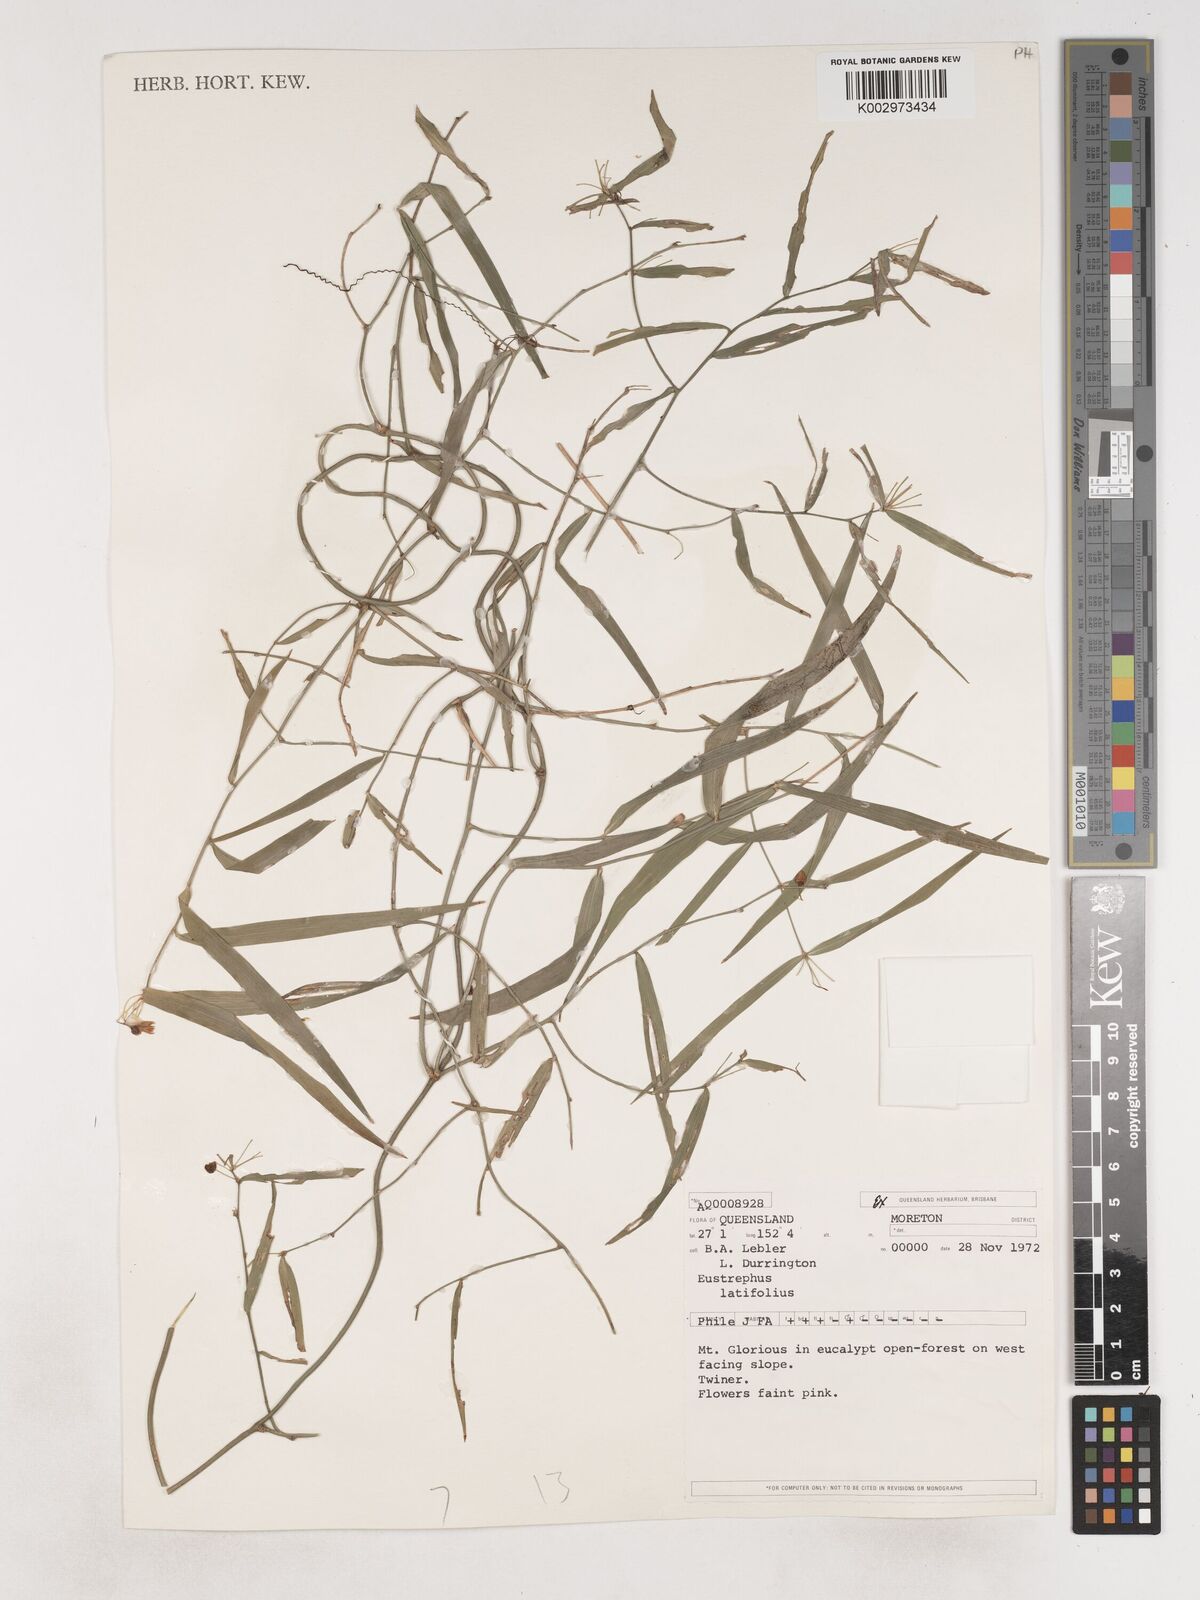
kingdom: Plantae
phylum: Tracheophyta
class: Liliopsida
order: Asparagales
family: Asparagaceae
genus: Eustrephus
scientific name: Eustrephus latifolius
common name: Orangevine
